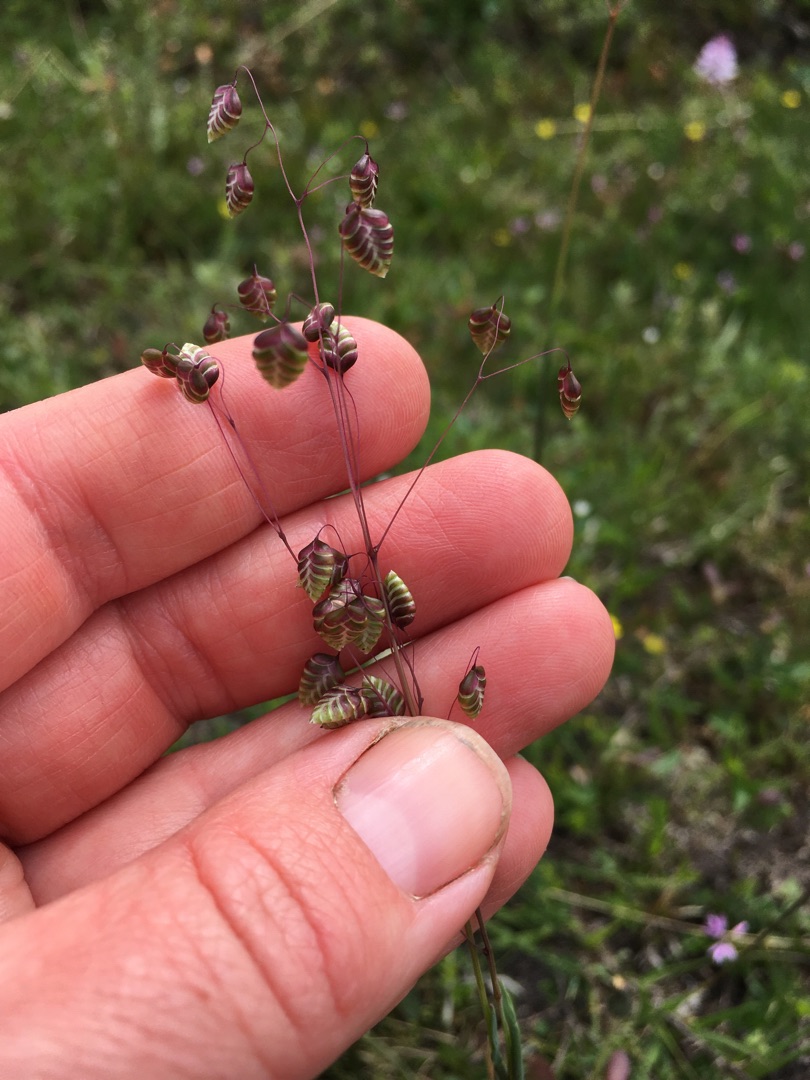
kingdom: Plantae
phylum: Tracheophyta
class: Liliopsida
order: Poales
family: Poaceae
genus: Briza
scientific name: Briza media
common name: Hjertegræs
